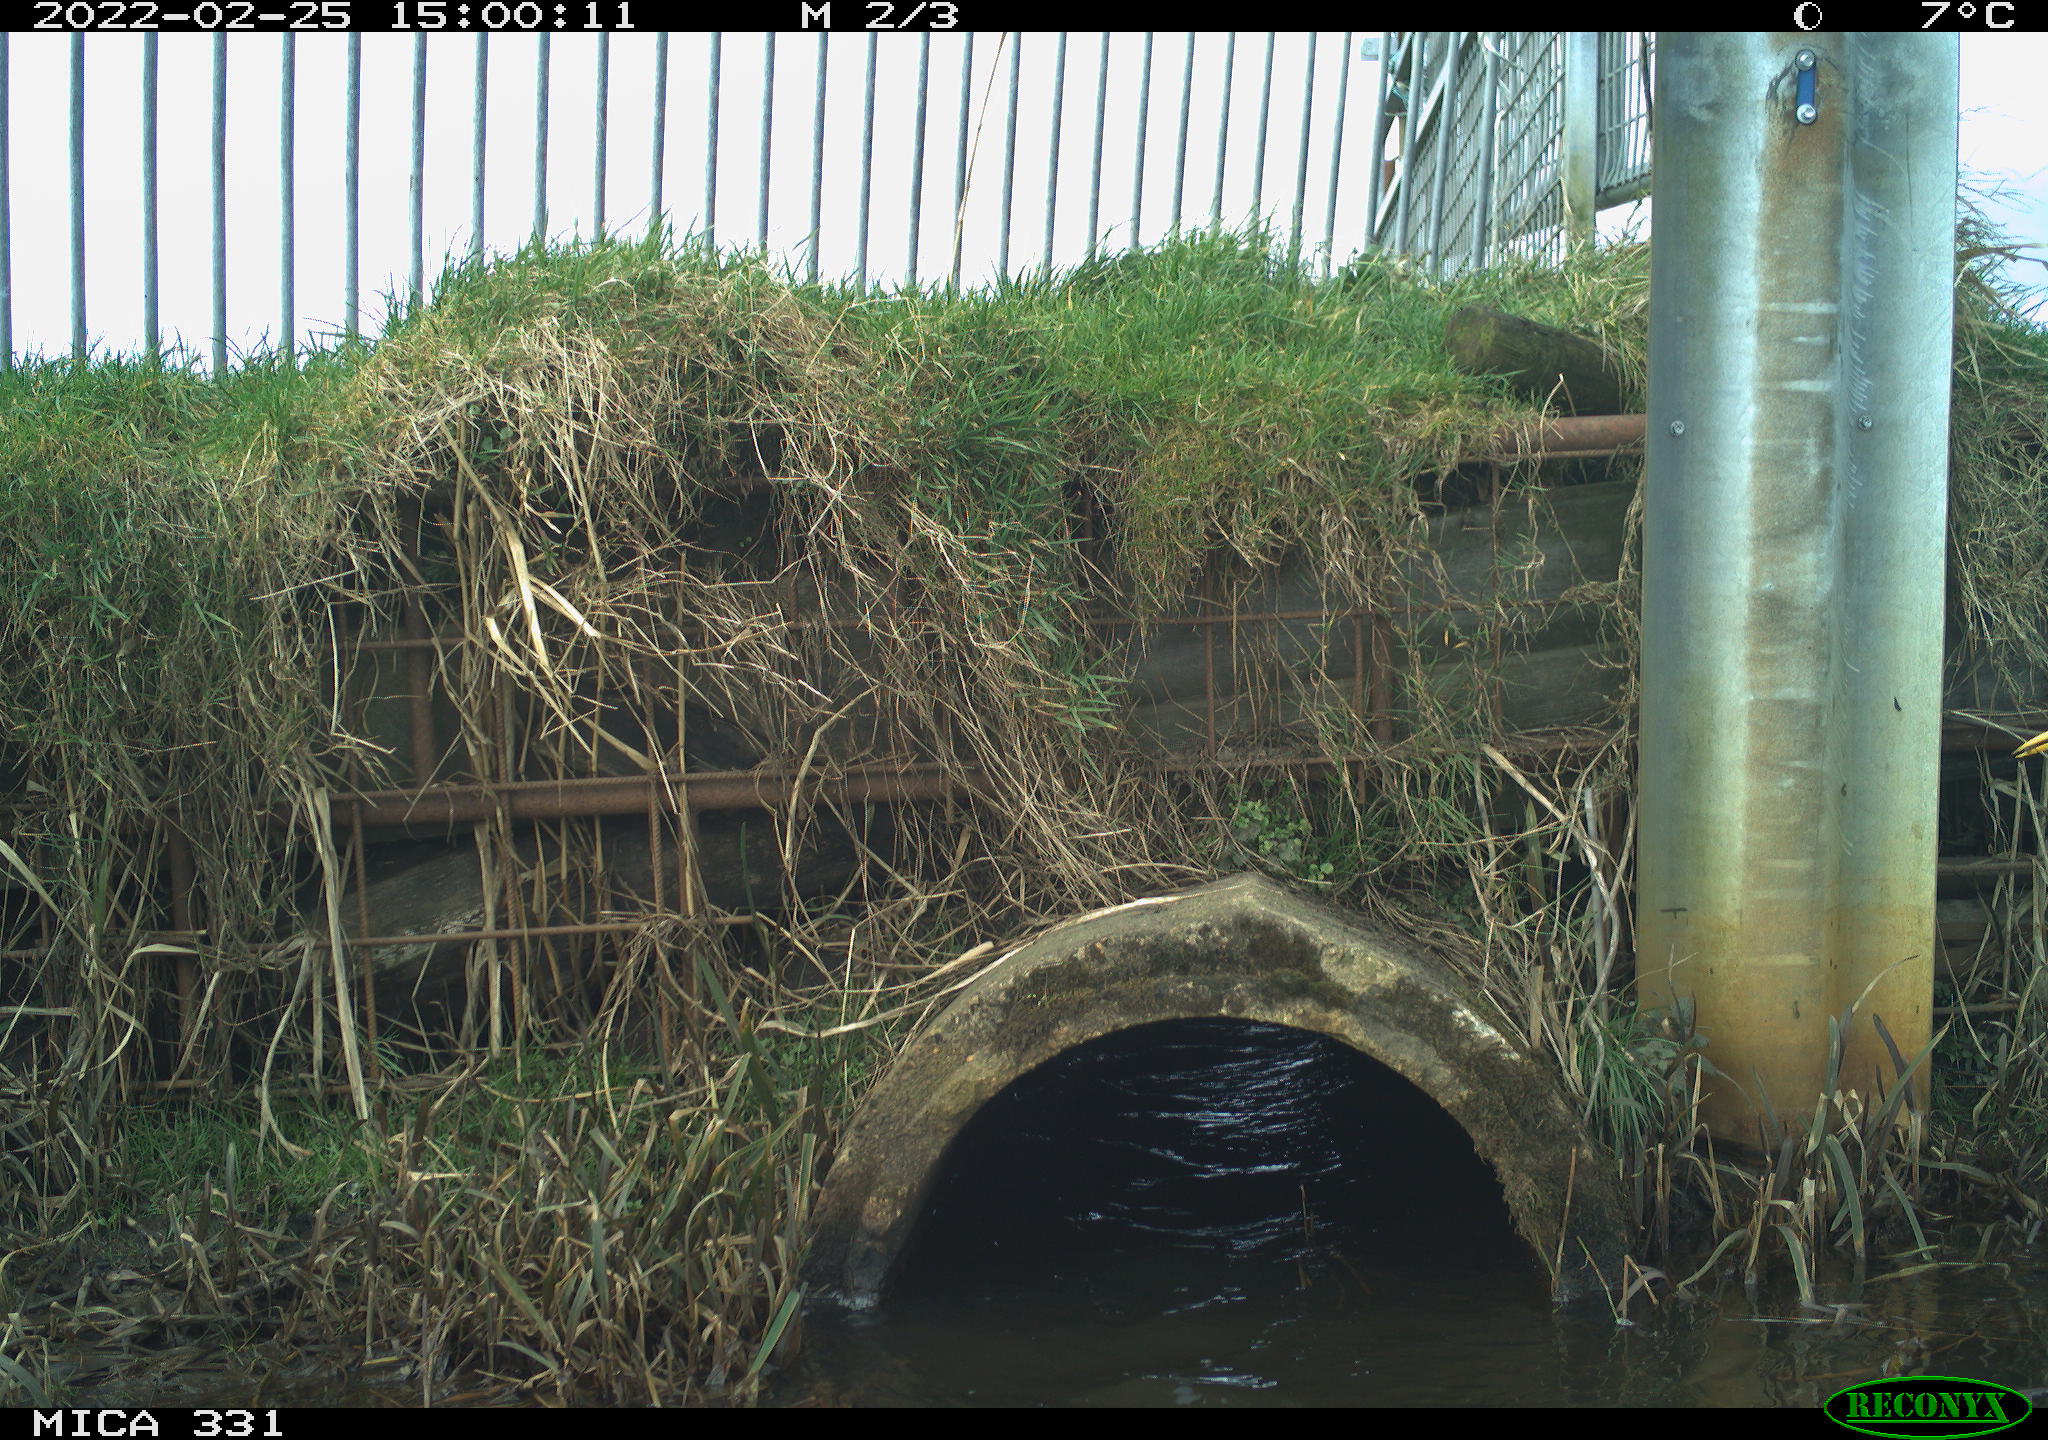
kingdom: Animalia
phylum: Chordata
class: Aves
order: Pelecaniformes
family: Ardeidae
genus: Ardea
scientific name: Ardea alba
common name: Great egret
